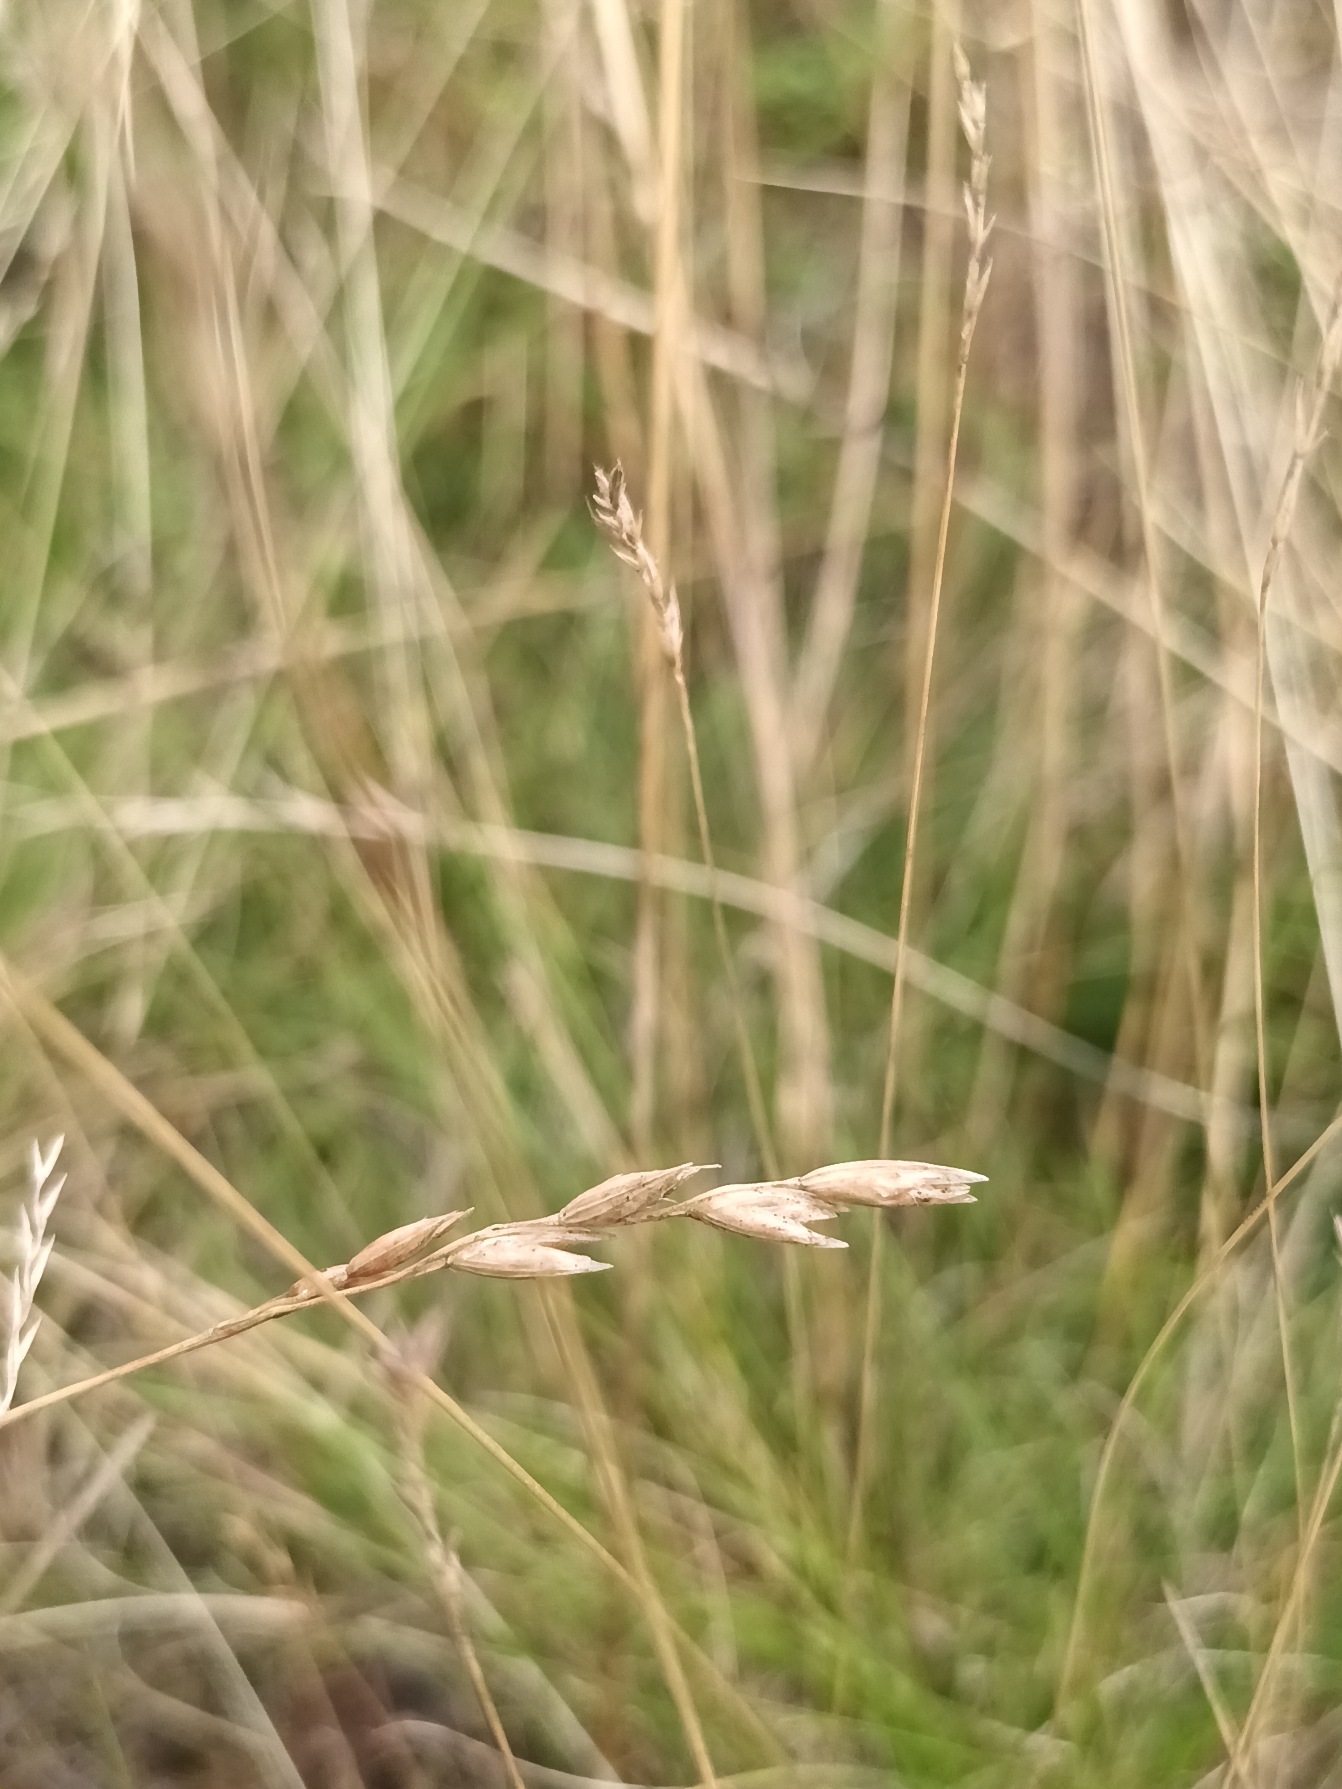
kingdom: Plantae
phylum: Tracheophyta
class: Liliopsida
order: Poales
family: Poaceae
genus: Danthonia
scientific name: Danthonia decumbens
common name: Tandbælg
